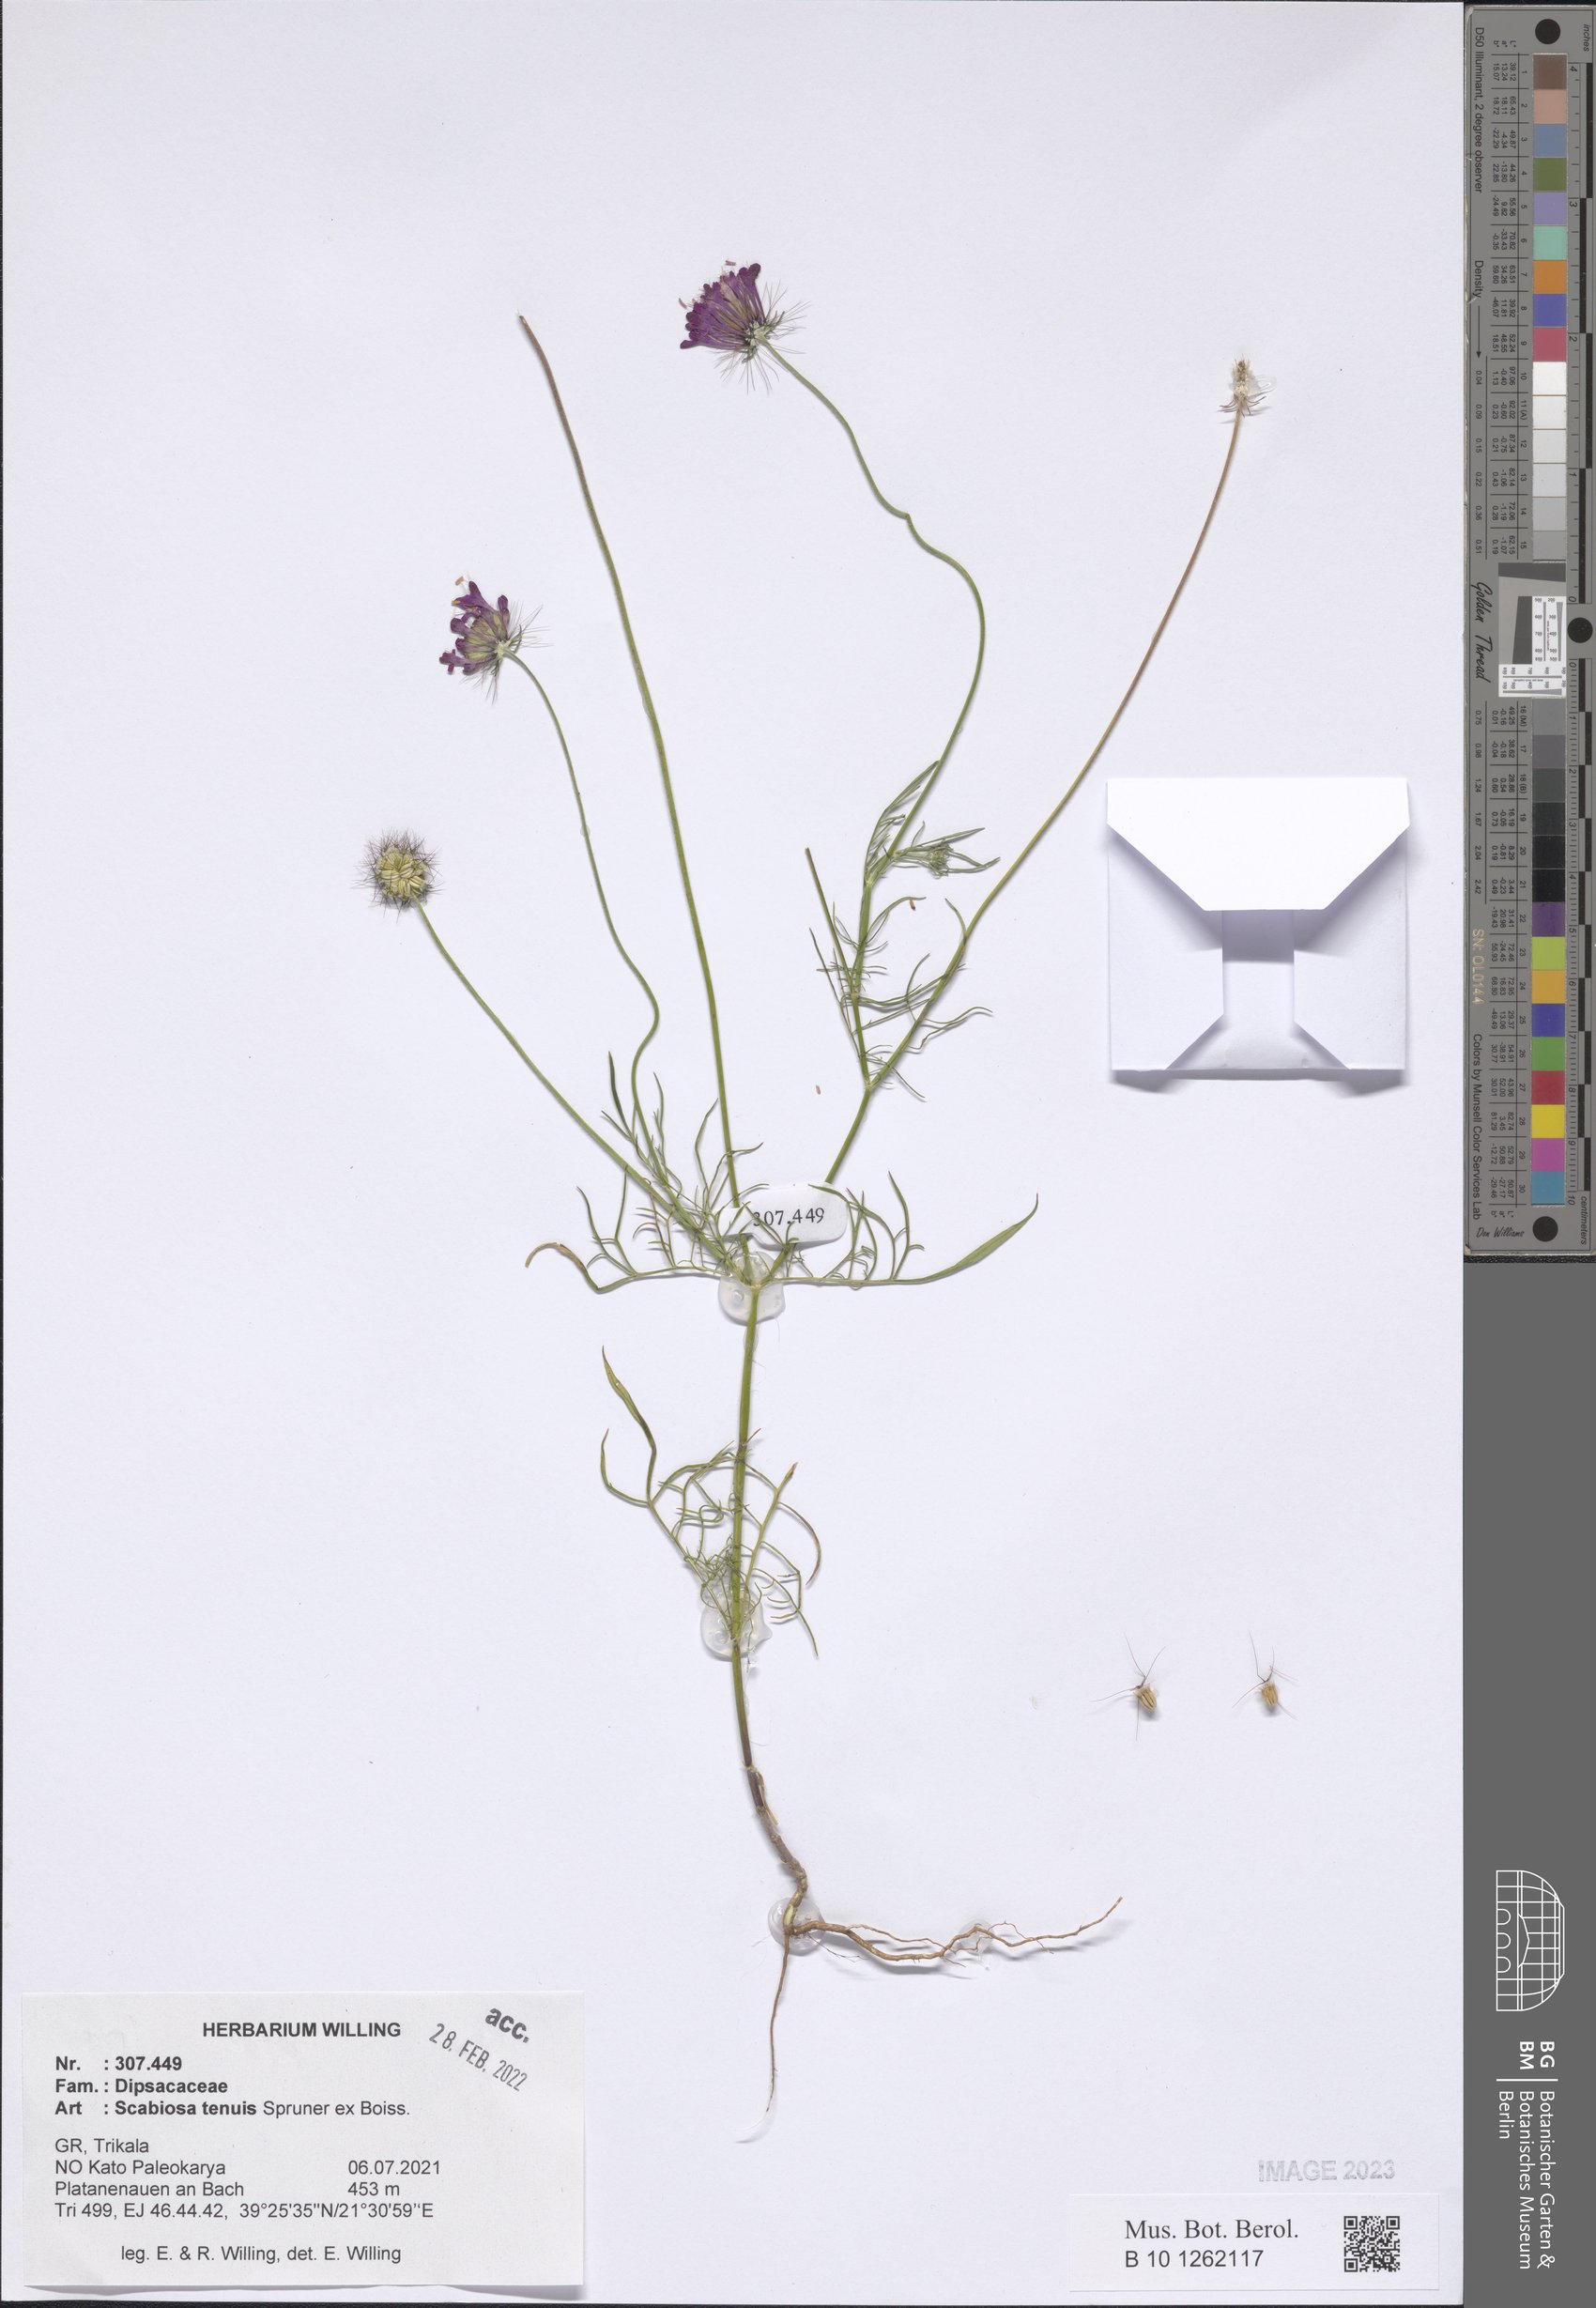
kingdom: Plantae
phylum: Tracheophyta
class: Magnoliopsida
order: Dipsacales
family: Caprifoliaceae
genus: Scabiosa
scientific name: Scabiosa tenuis
